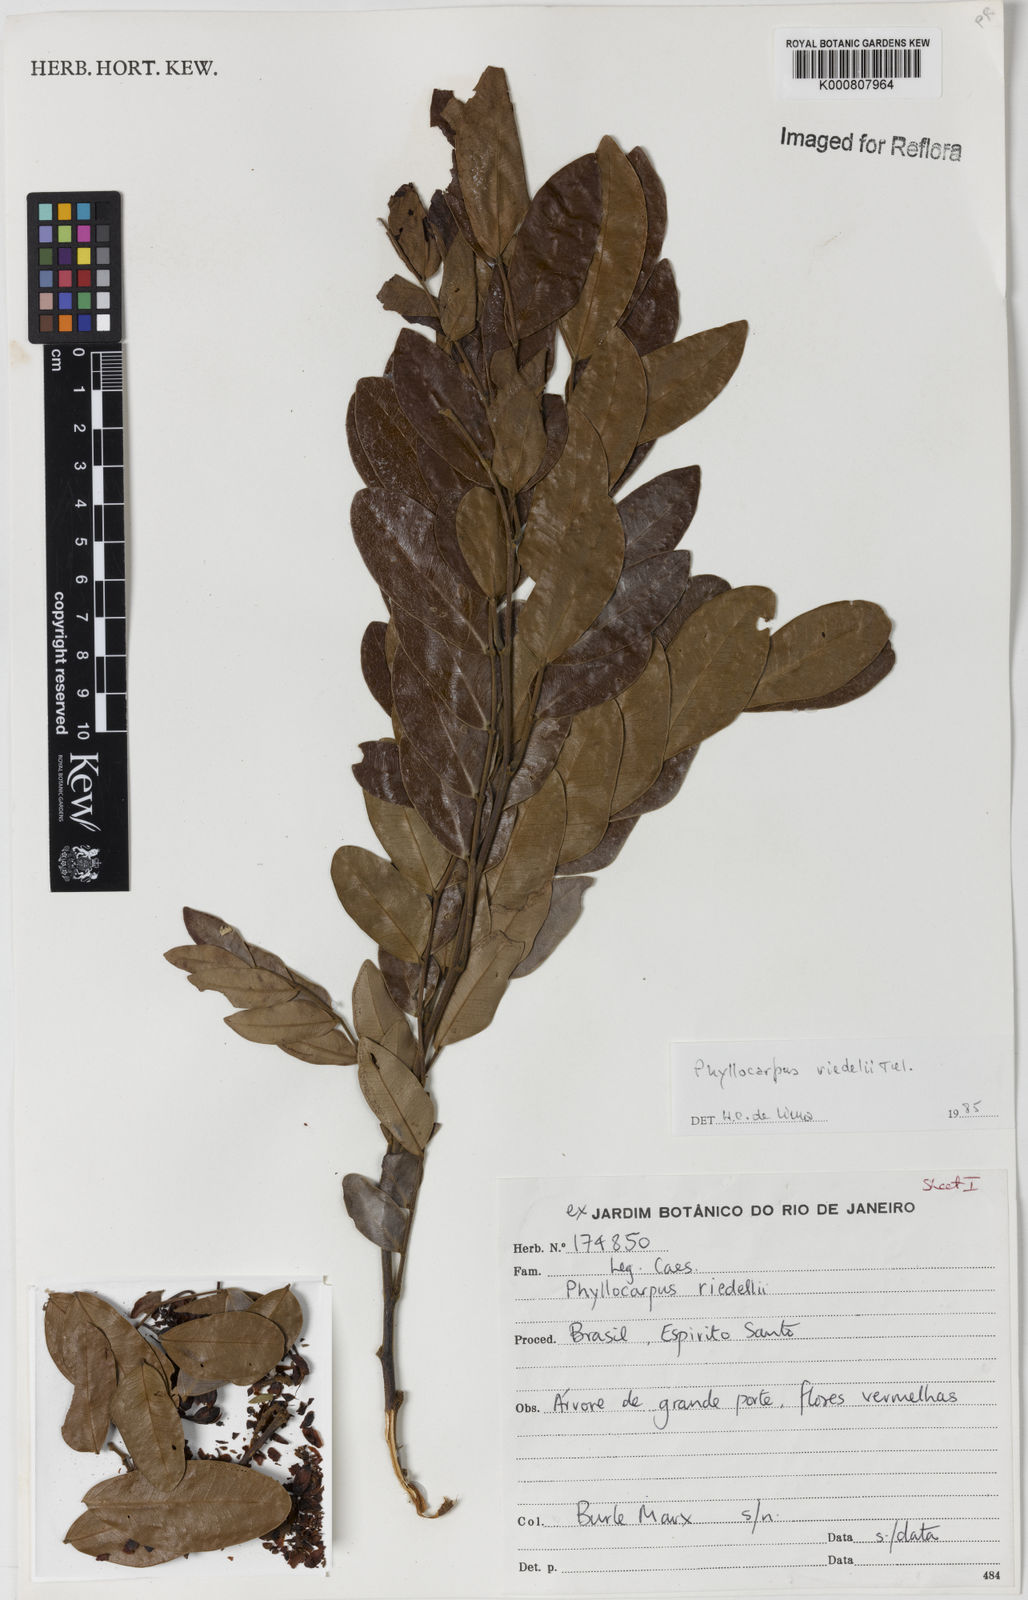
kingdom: Plantae
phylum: Tracheophyta
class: Magnoliopsida
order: Fabales
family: Fabaceae
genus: Barnebydendron
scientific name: Barnebydendron riedelii
